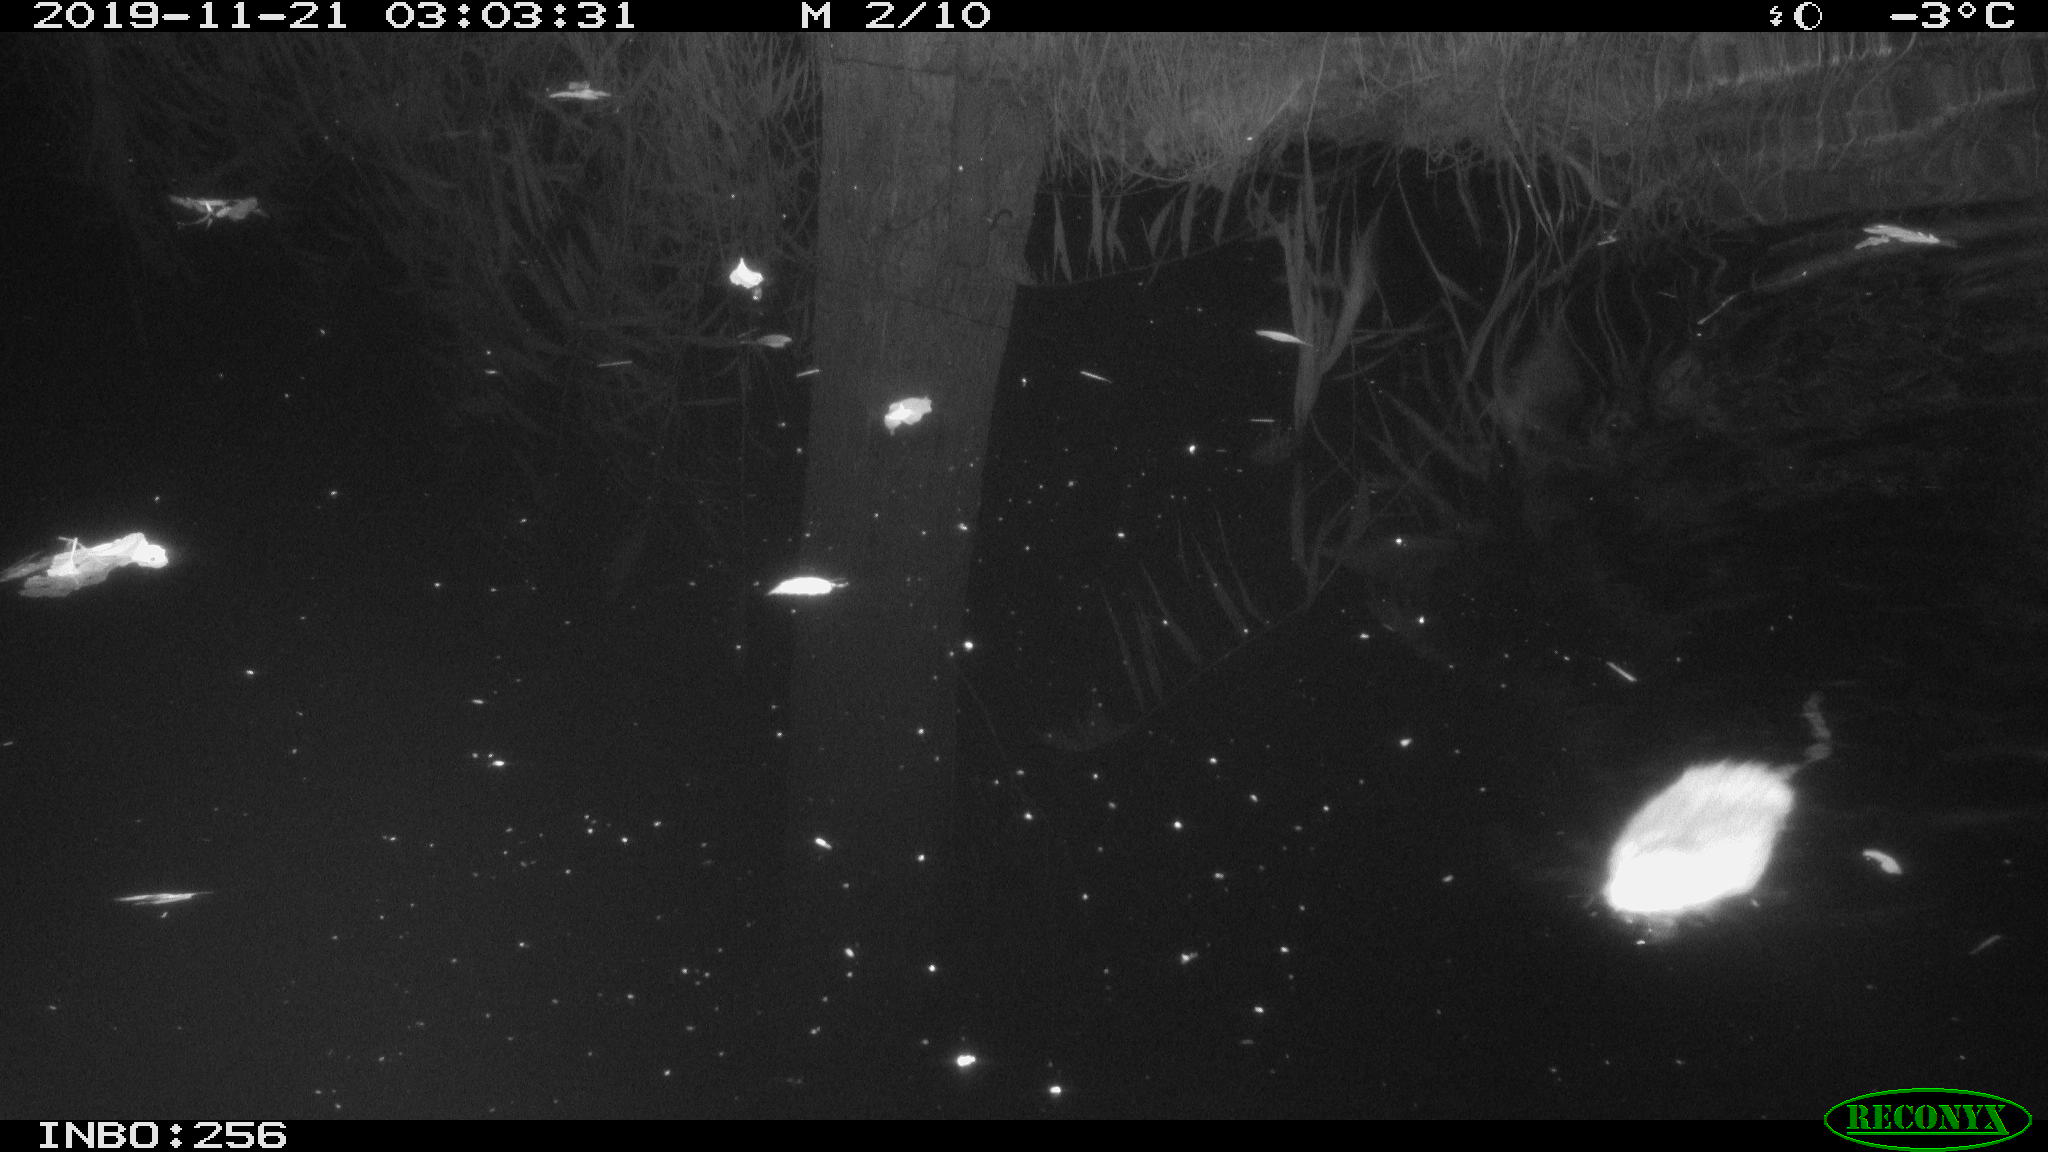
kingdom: Animalia
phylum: Chordata
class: Mammalia
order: Rodentia
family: Cricetidae
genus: Ondatra
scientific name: Ondatra zibethicus
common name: Muskrat
